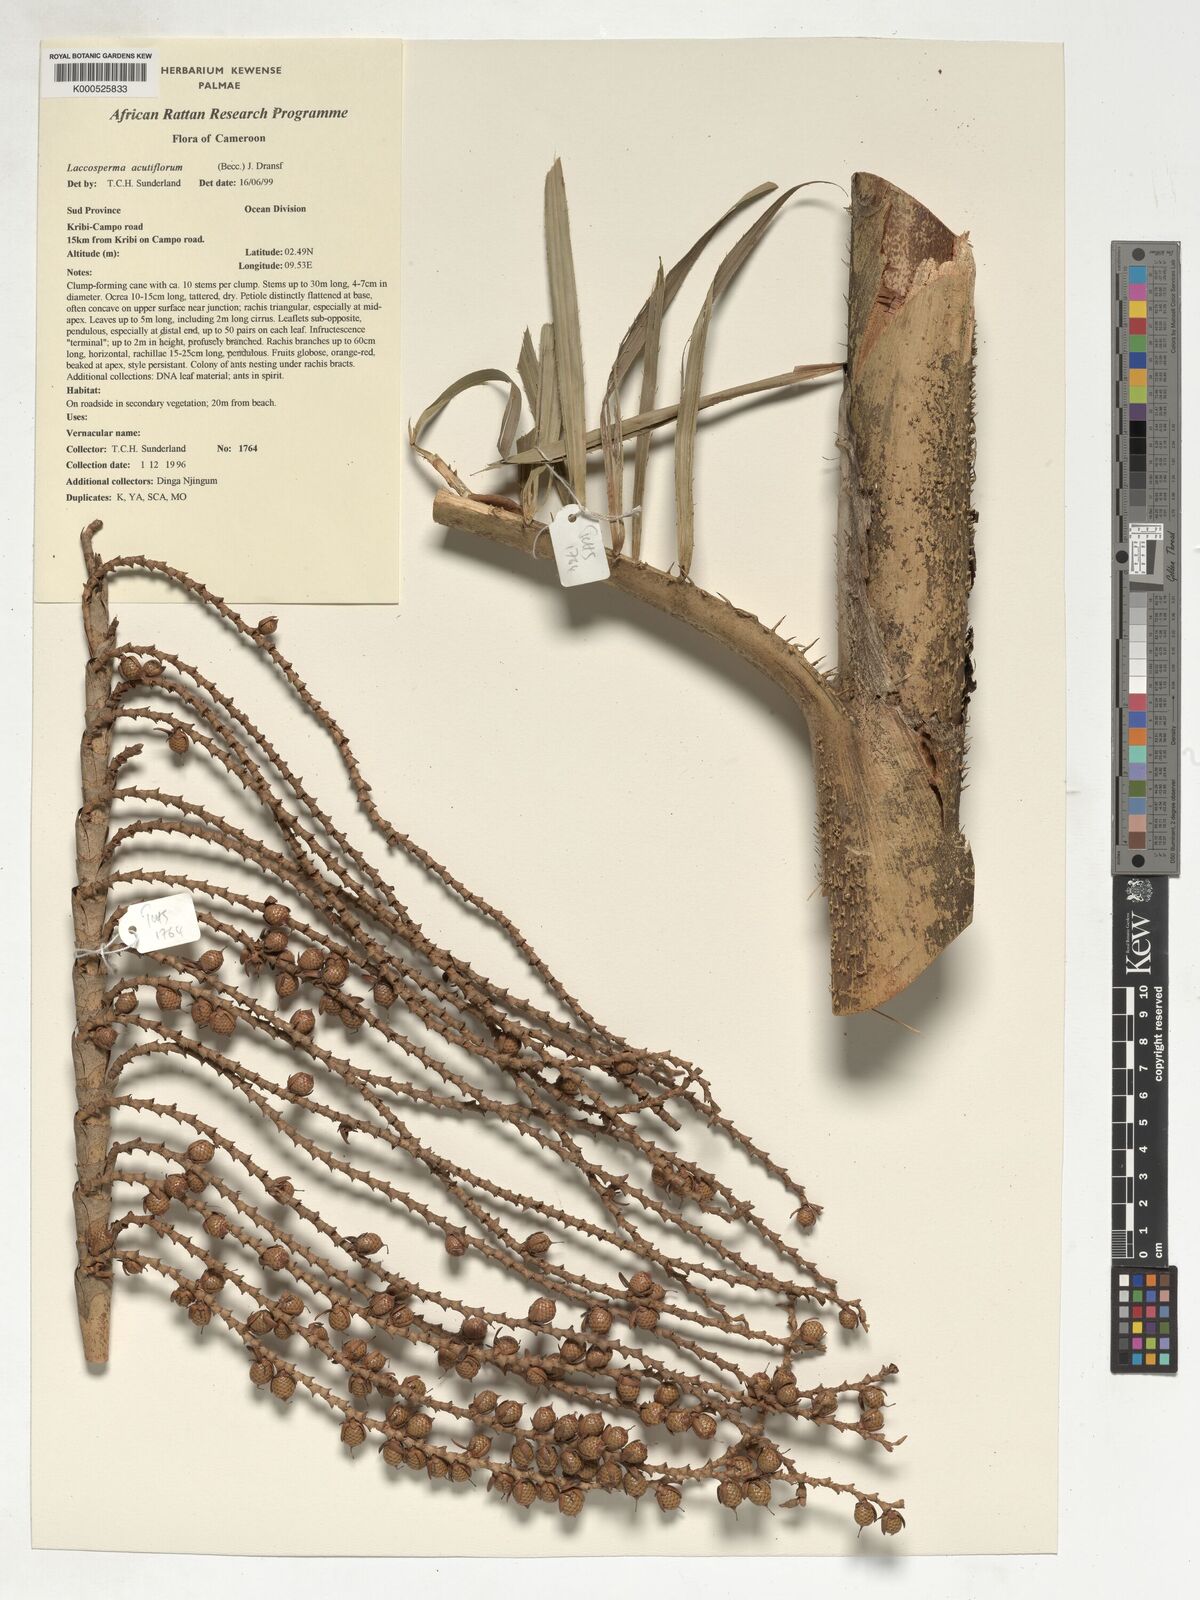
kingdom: Plantae
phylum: Tracheophyta
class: Liliopsida
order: Arecales
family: Arecaceae
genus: Laccosperma
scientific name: Laccosperma acutiflorum
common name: Rattan
